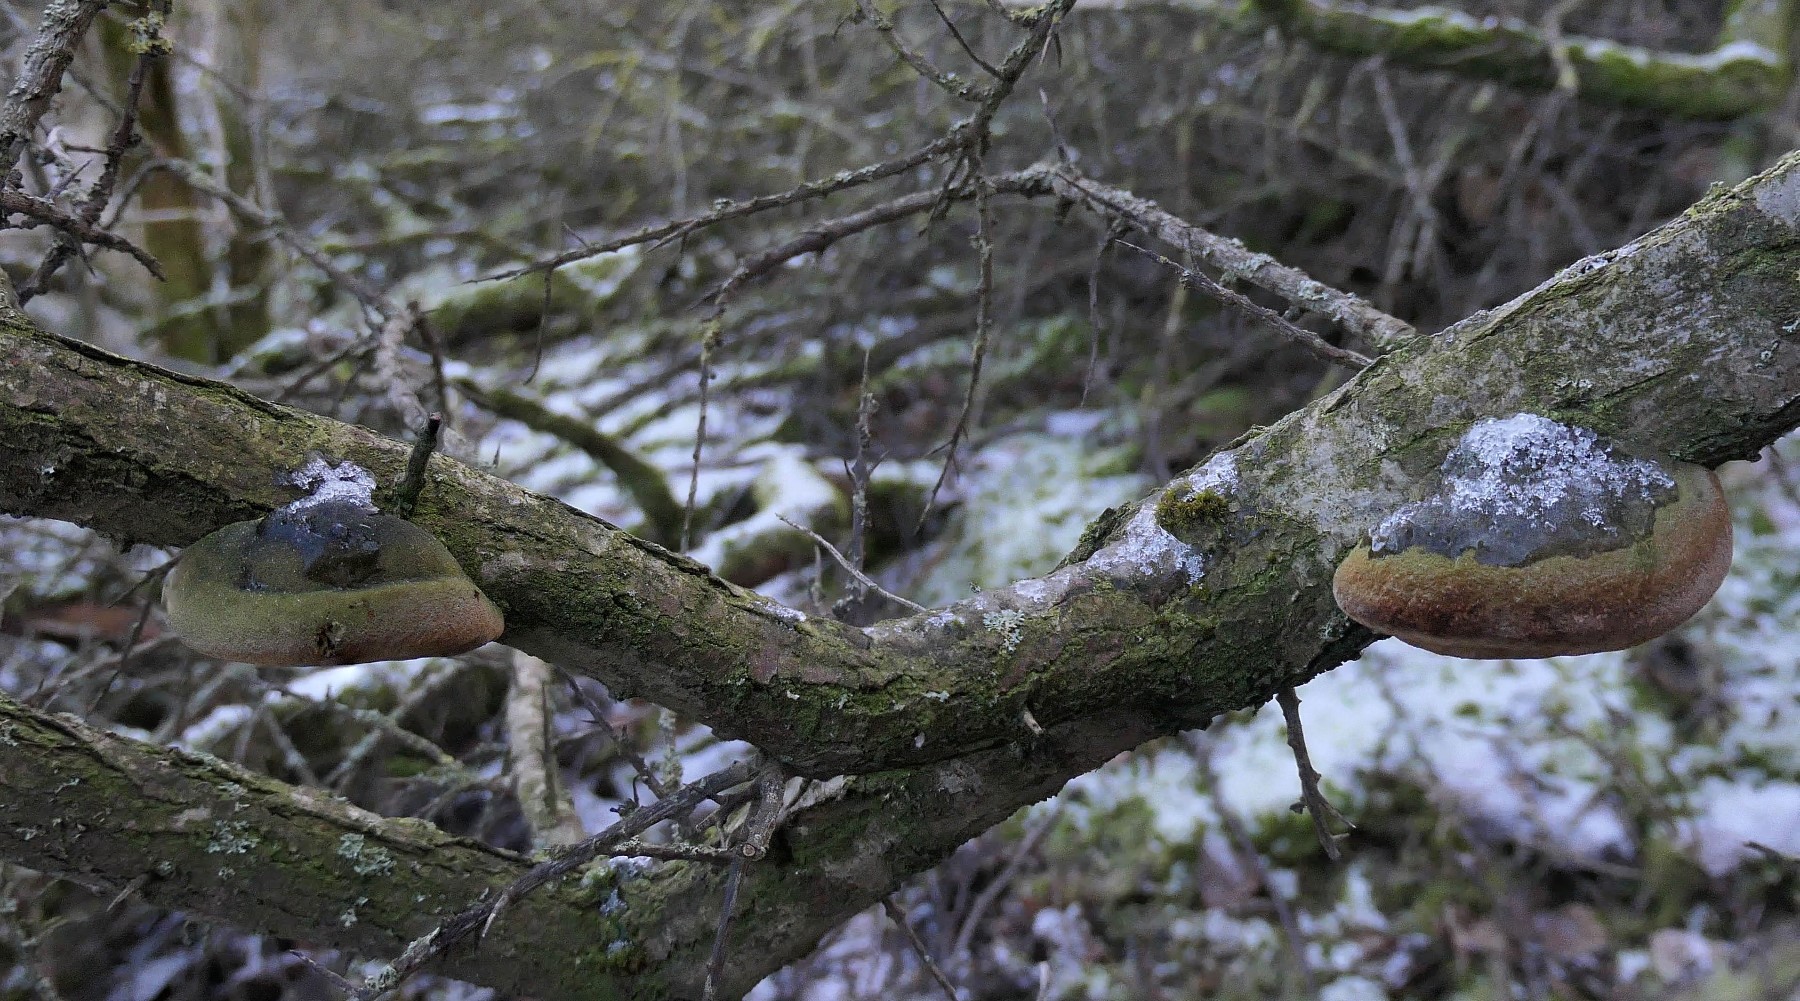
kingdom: Fungi
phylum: Basidiomycota
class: Agaricomycetes
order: Hymenochaetales
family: Hymenochaetaceae
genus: Fomitiporia
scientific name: Fomitiporia hippophaeicola
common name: havtorn-ildporesvamp
